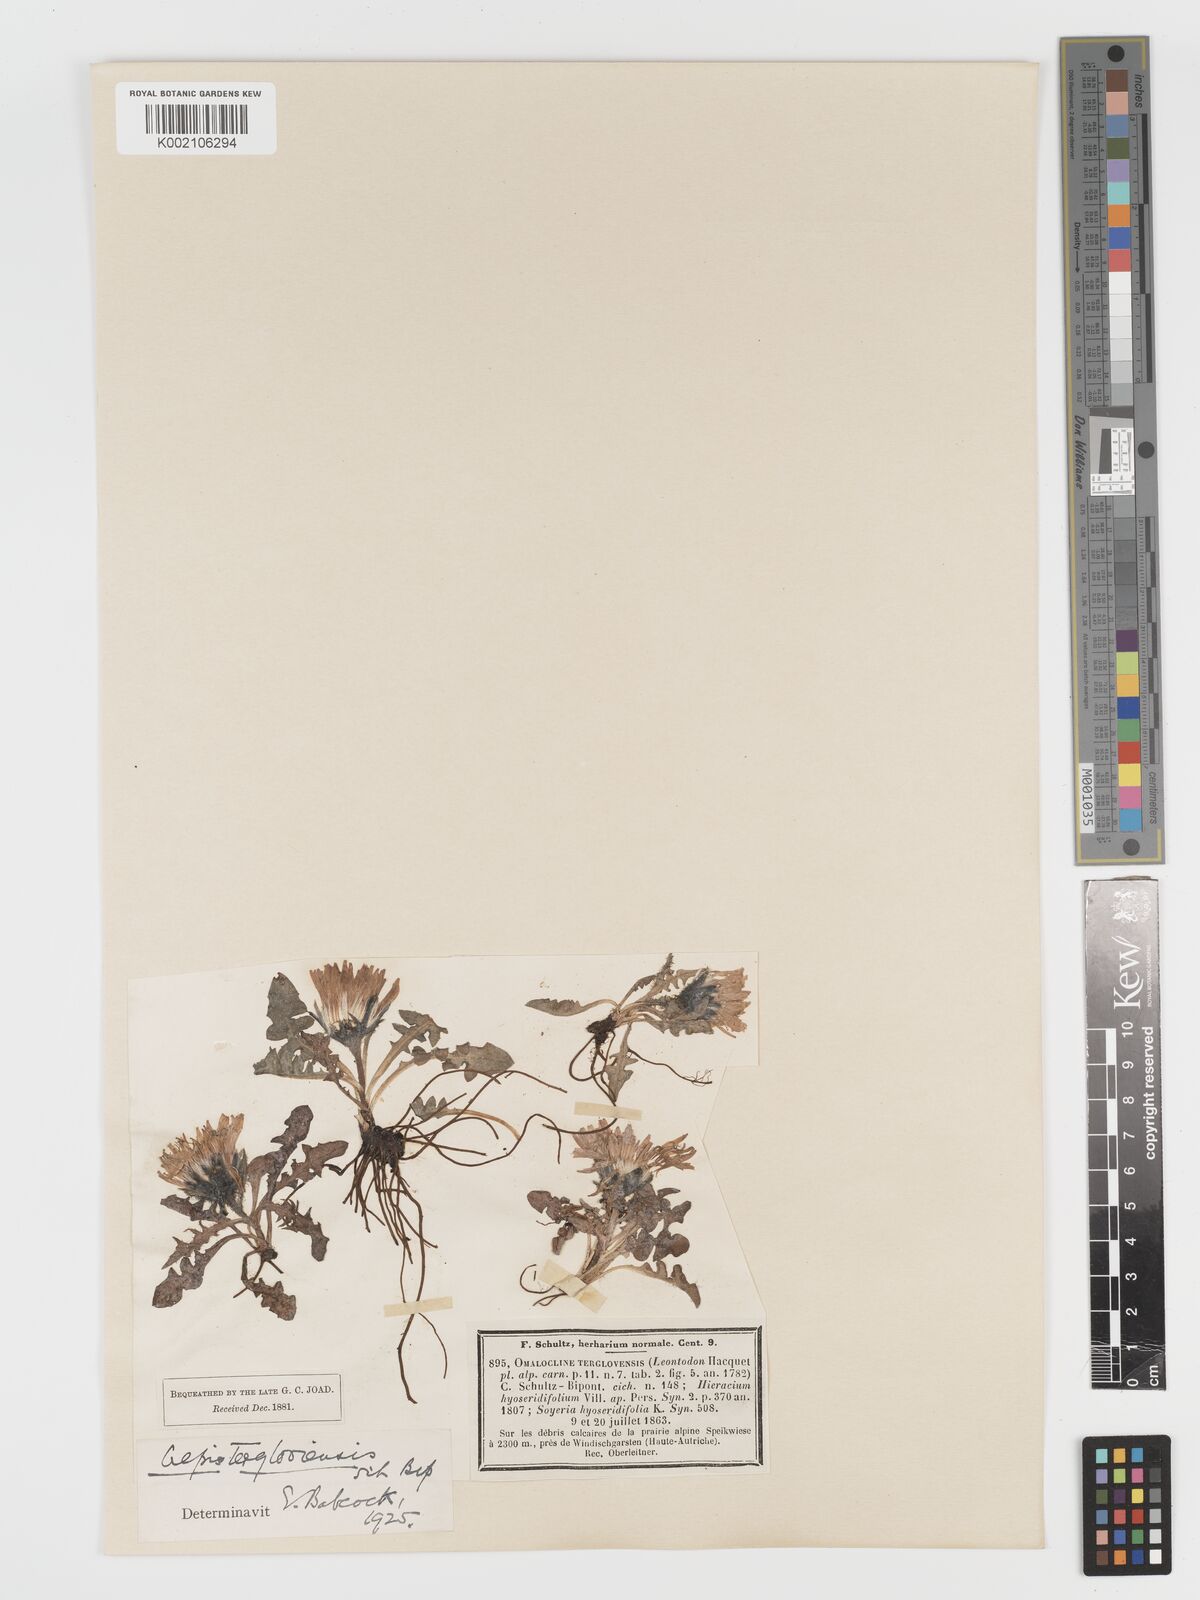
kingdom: Plantae
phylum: Tracheophyta
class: Magnoliopsida
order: Asterales
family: Asteraceae
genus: Crepis
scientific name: Crepis terglouensis
